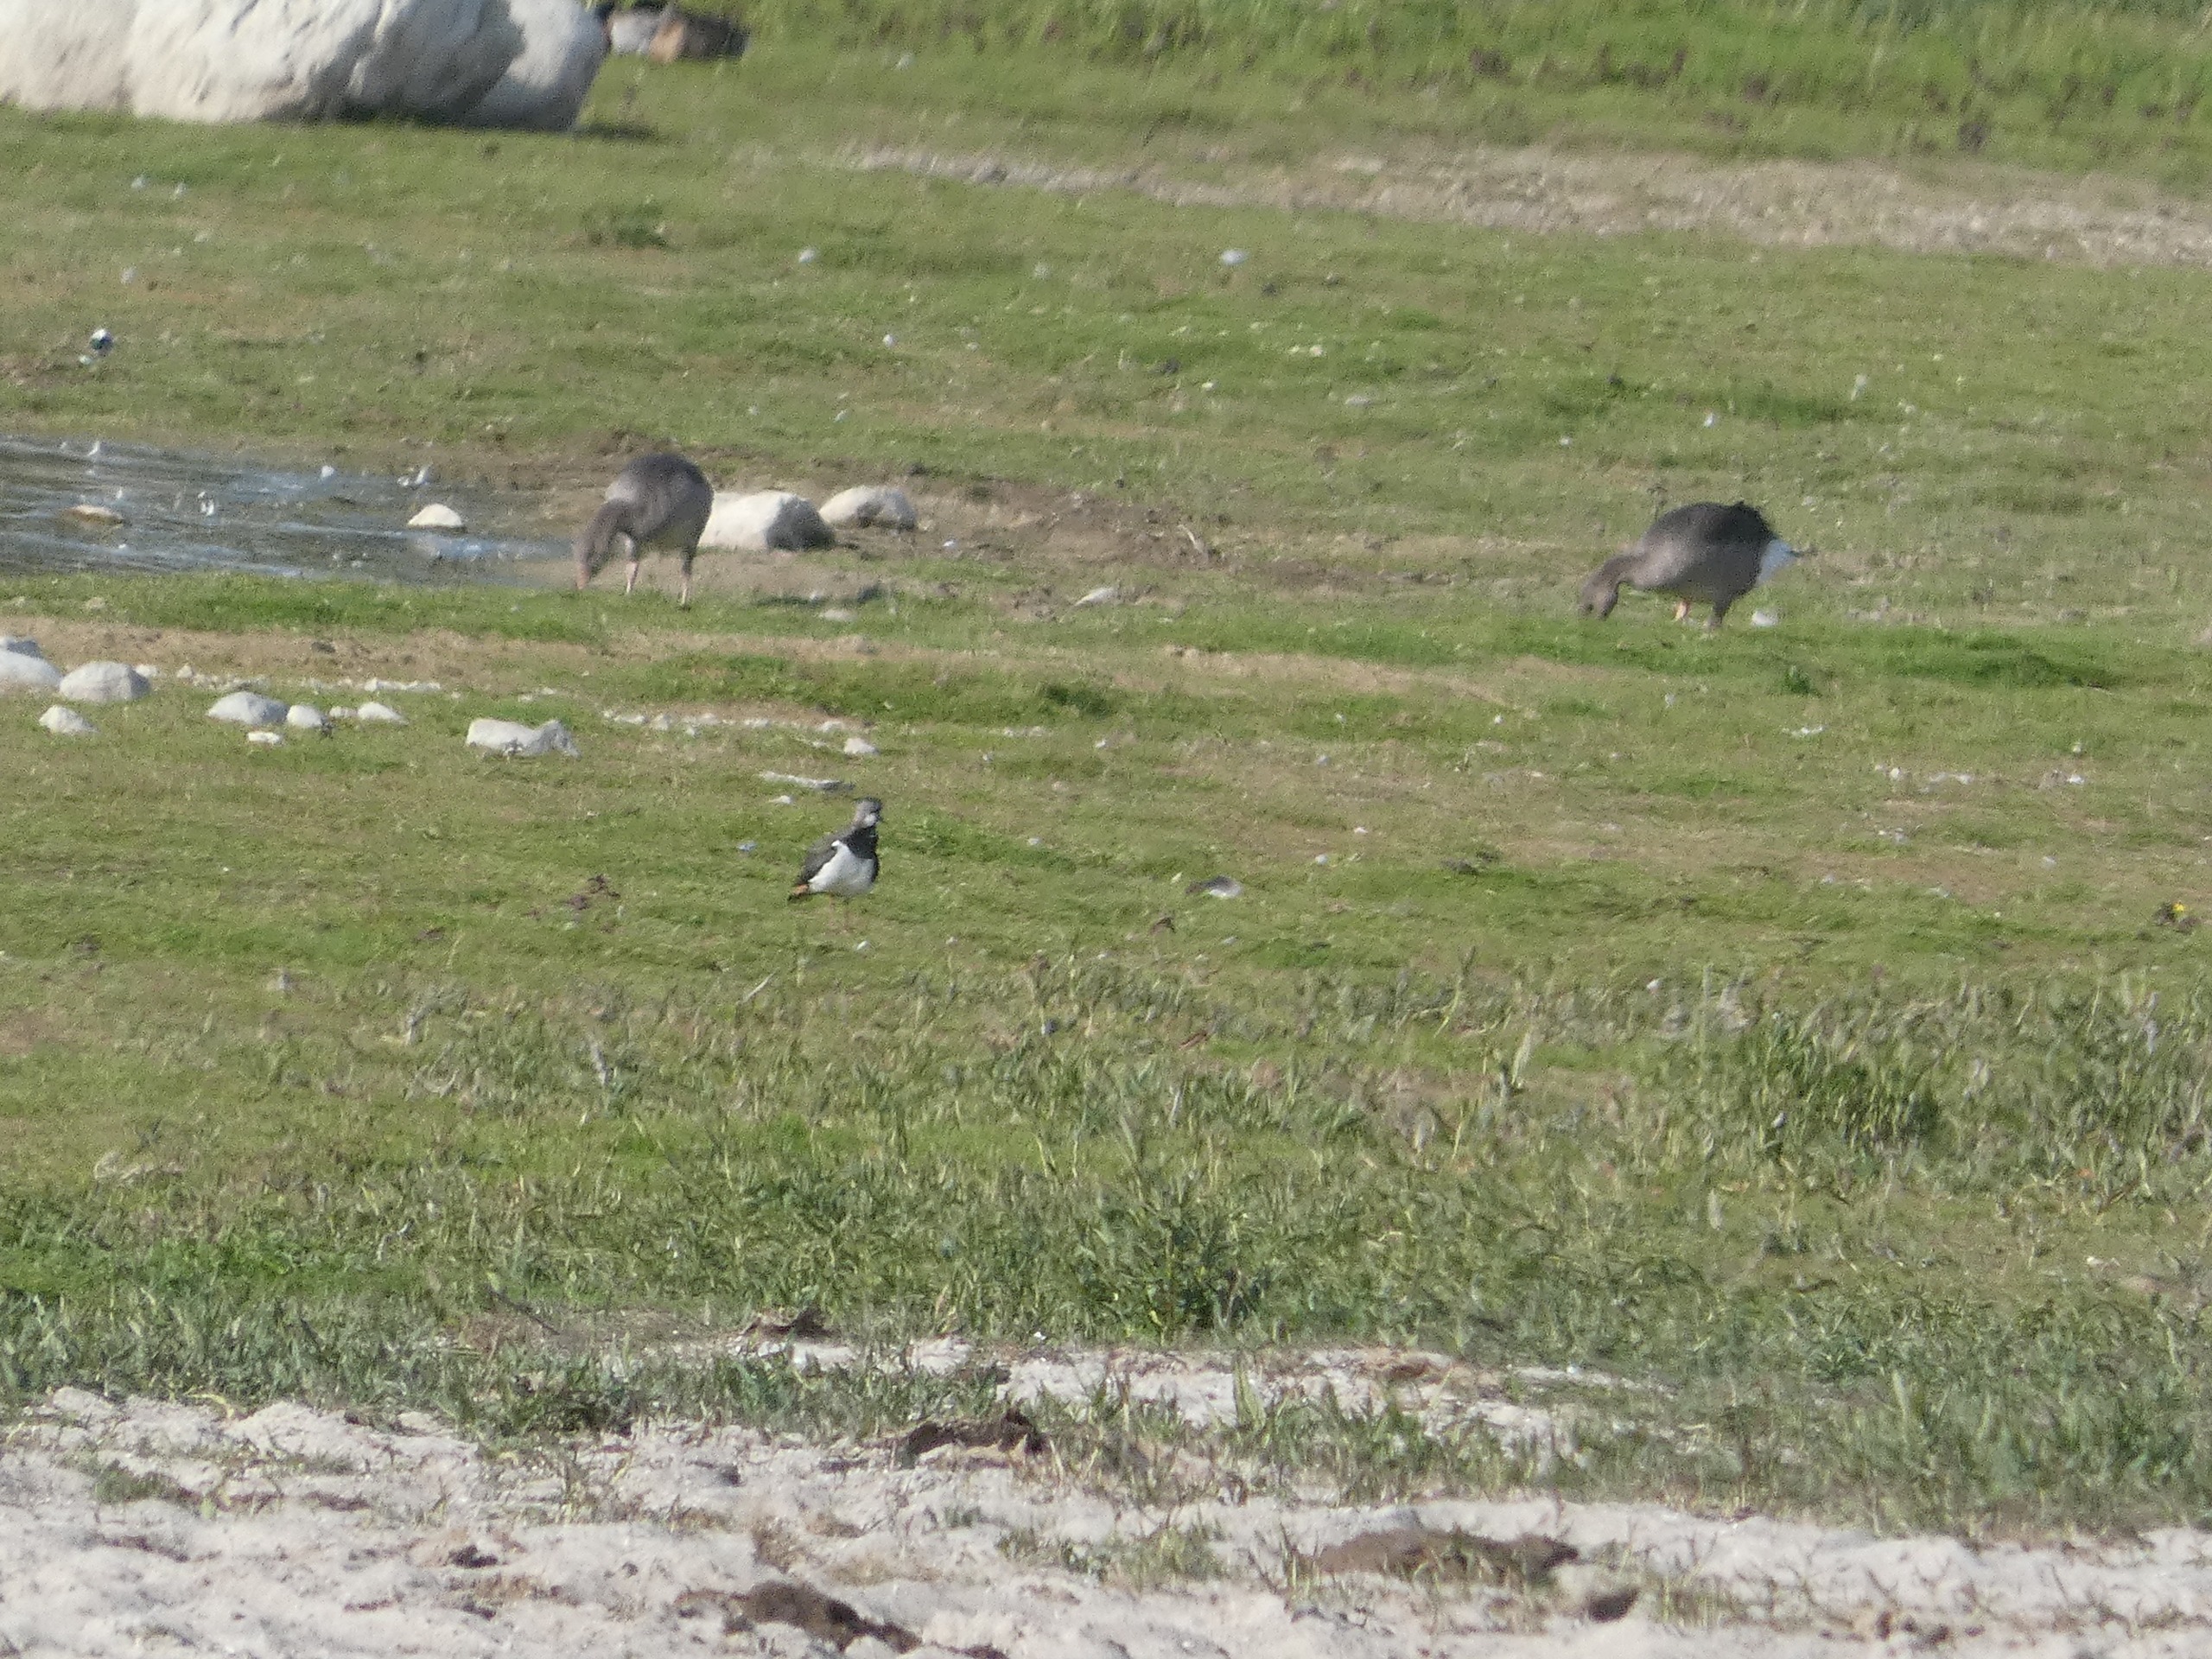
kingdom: Animalia
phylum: Chordata
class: Aves
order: Charadriiformes
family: Charadriidae
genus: Vanellus
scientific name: Vanellus vanellus
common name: Vibe
